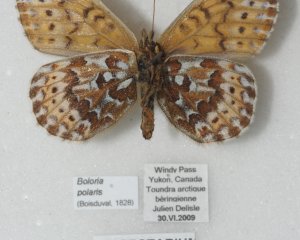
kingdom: Animalia
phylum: Arthropoda
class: Insecta
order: Lepidoptera
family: Nymphalidae
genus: Clossiana
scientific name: Clossiana polaris
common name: Polaris Fritillary
